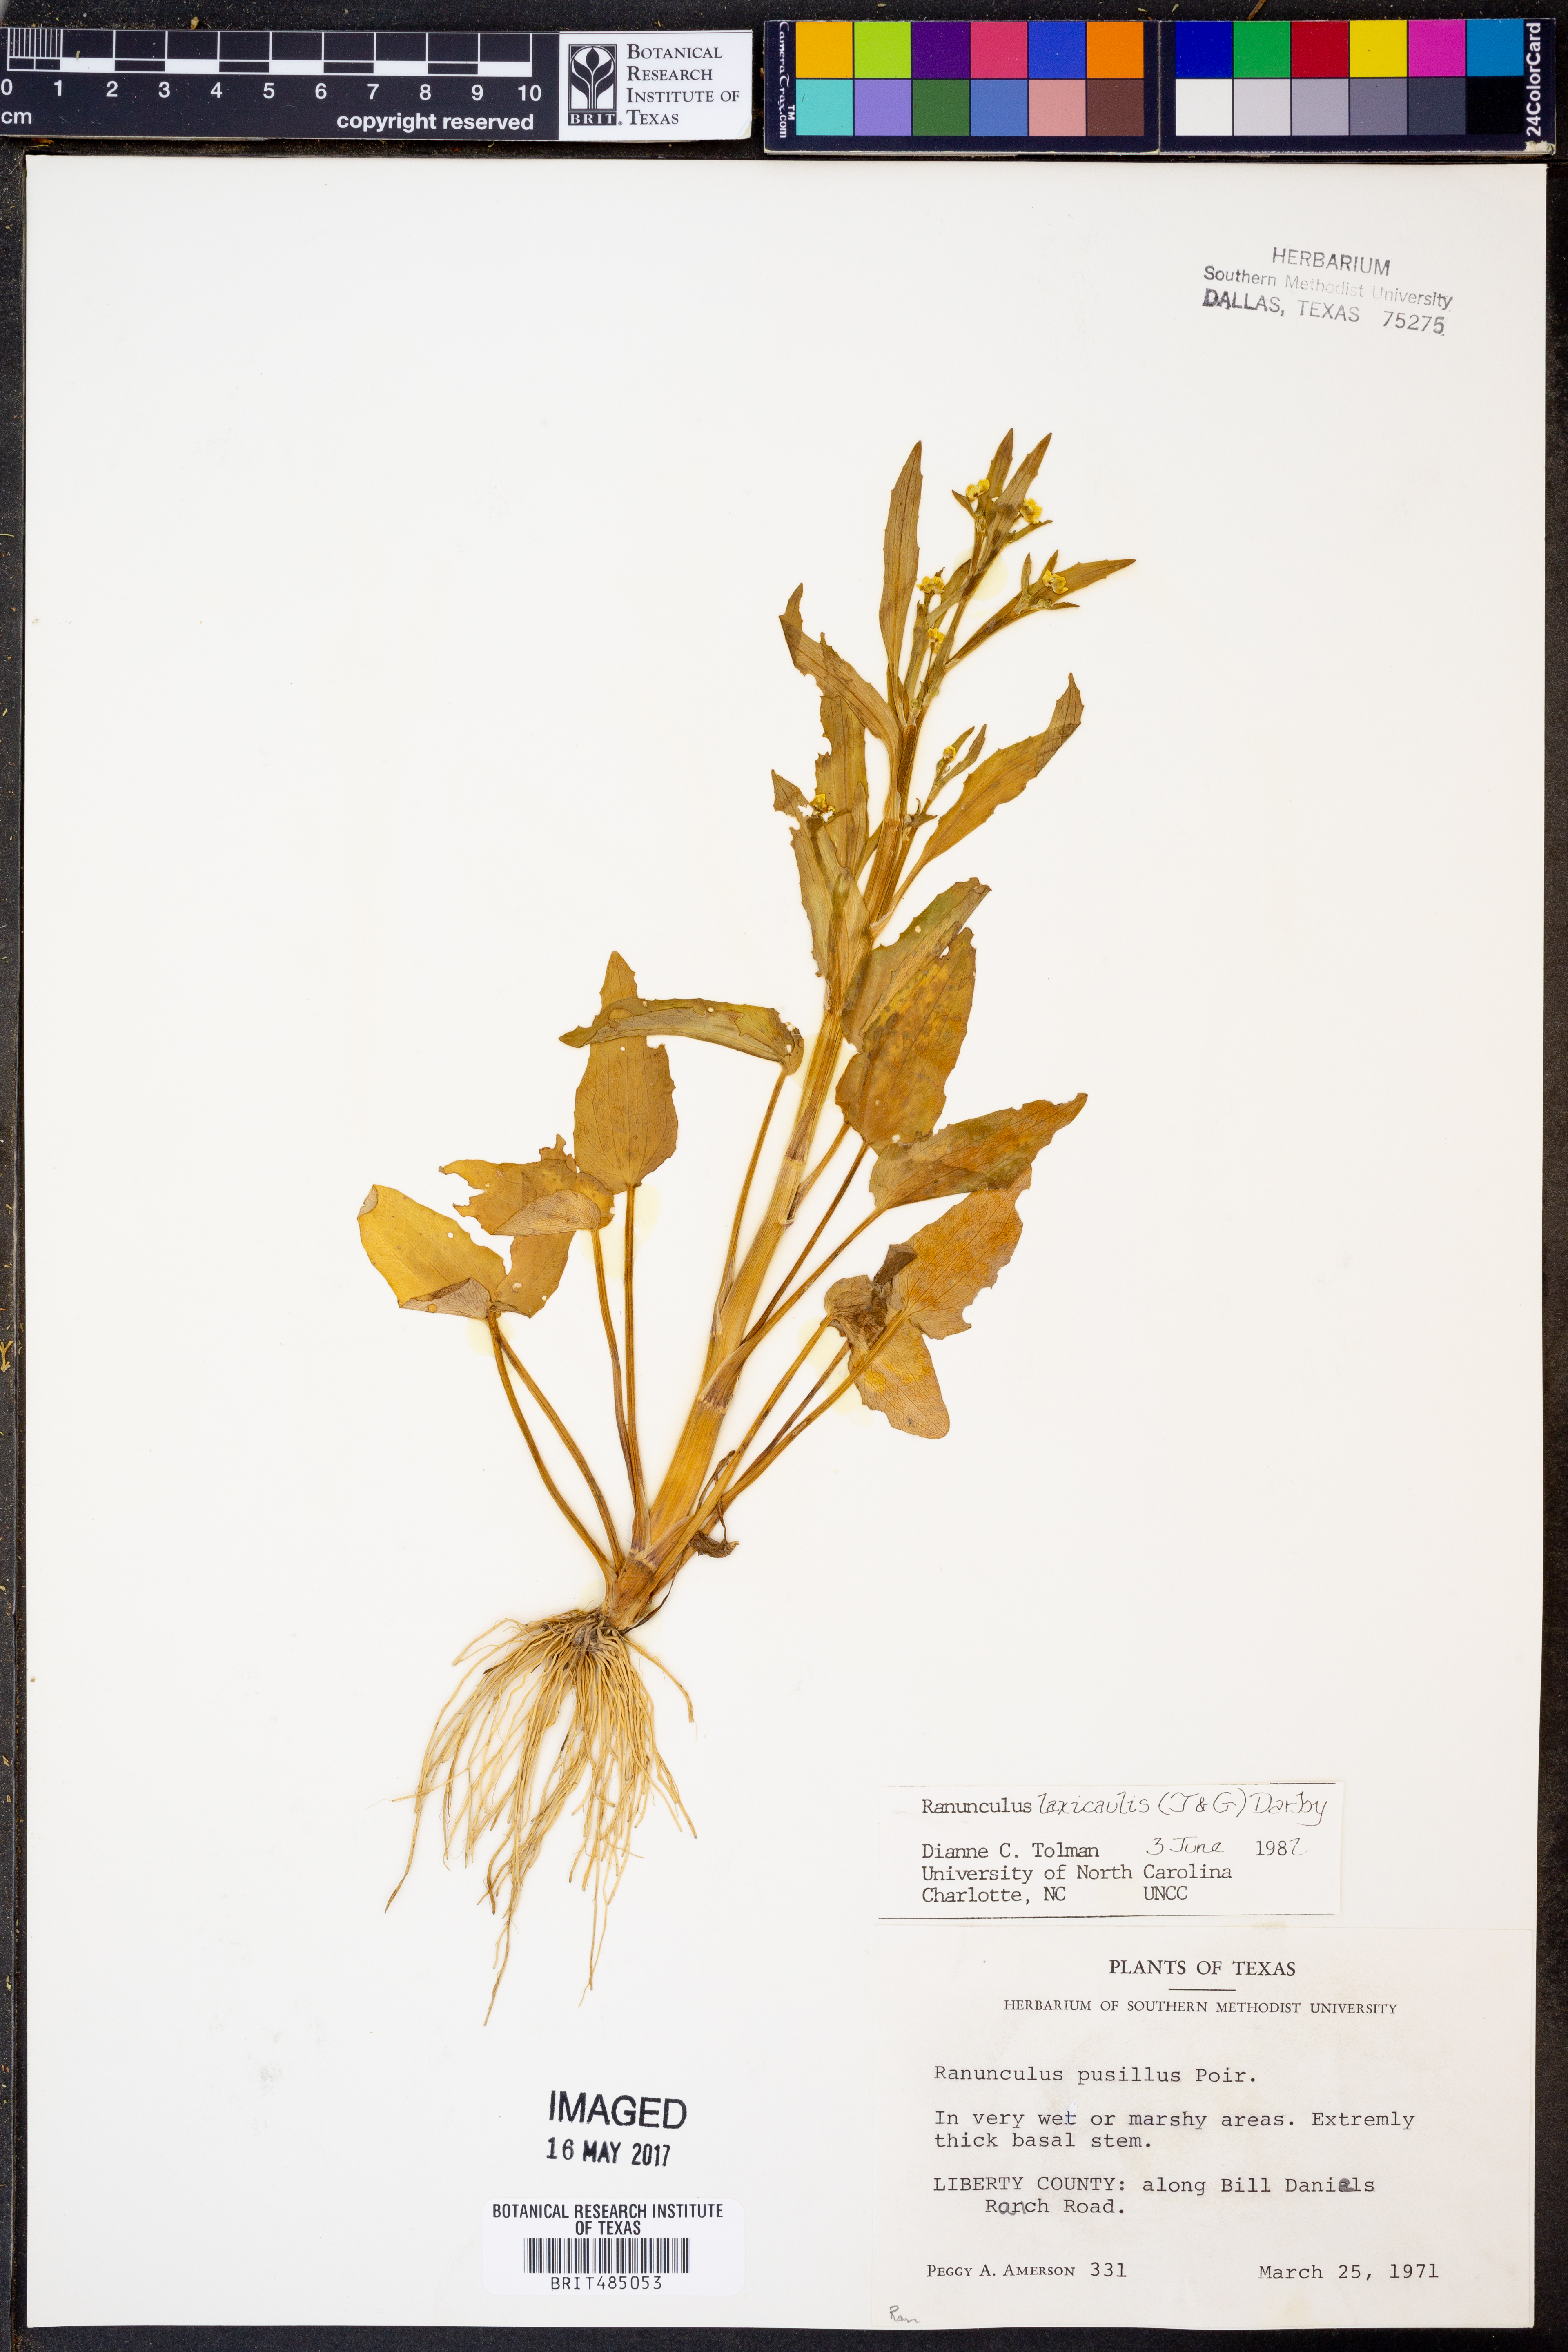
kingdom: Plantae
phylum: Tracheophyta
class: Magnoliopsida
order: Ranunculales
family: Ranunculaceae
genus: Ranunculus
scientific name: Ranunculus pusillus
